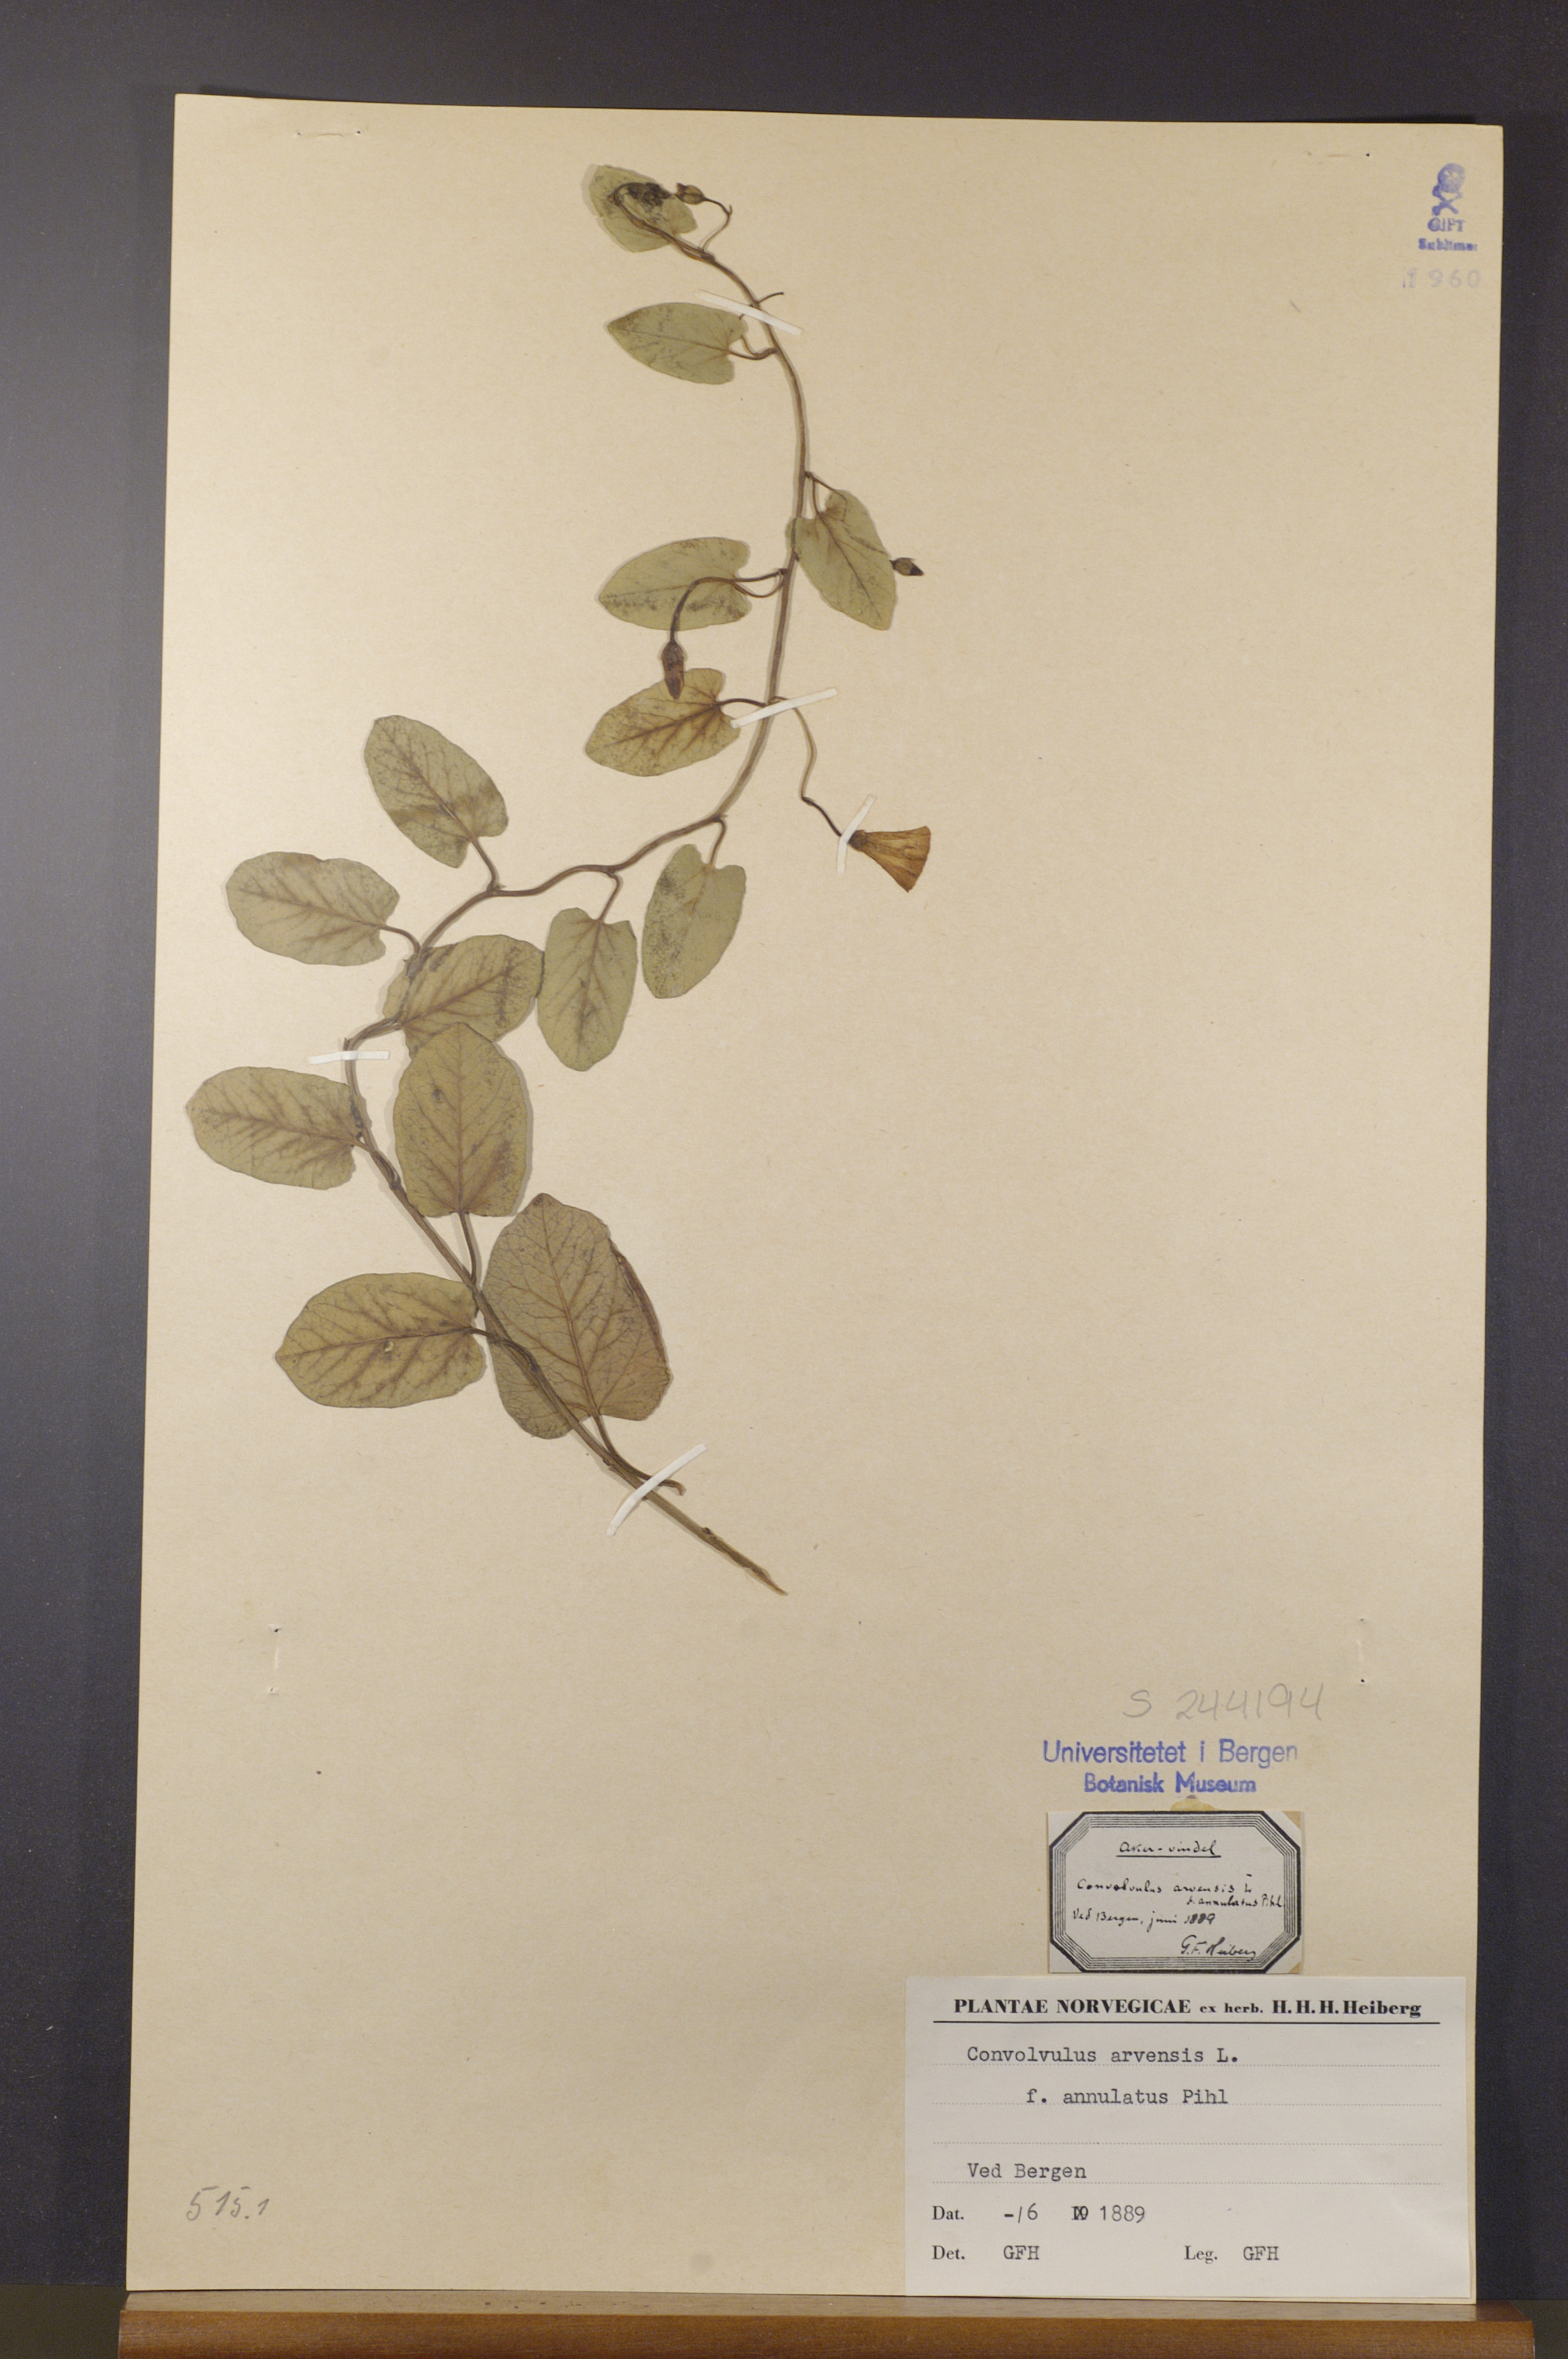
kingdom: Plantae
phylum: Tracheophyta
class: Magnoliopsida
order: Solanales
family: Convolvulaceae
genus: Convolvulus
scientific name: Convolvulus arvensis
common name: Field bindweed
